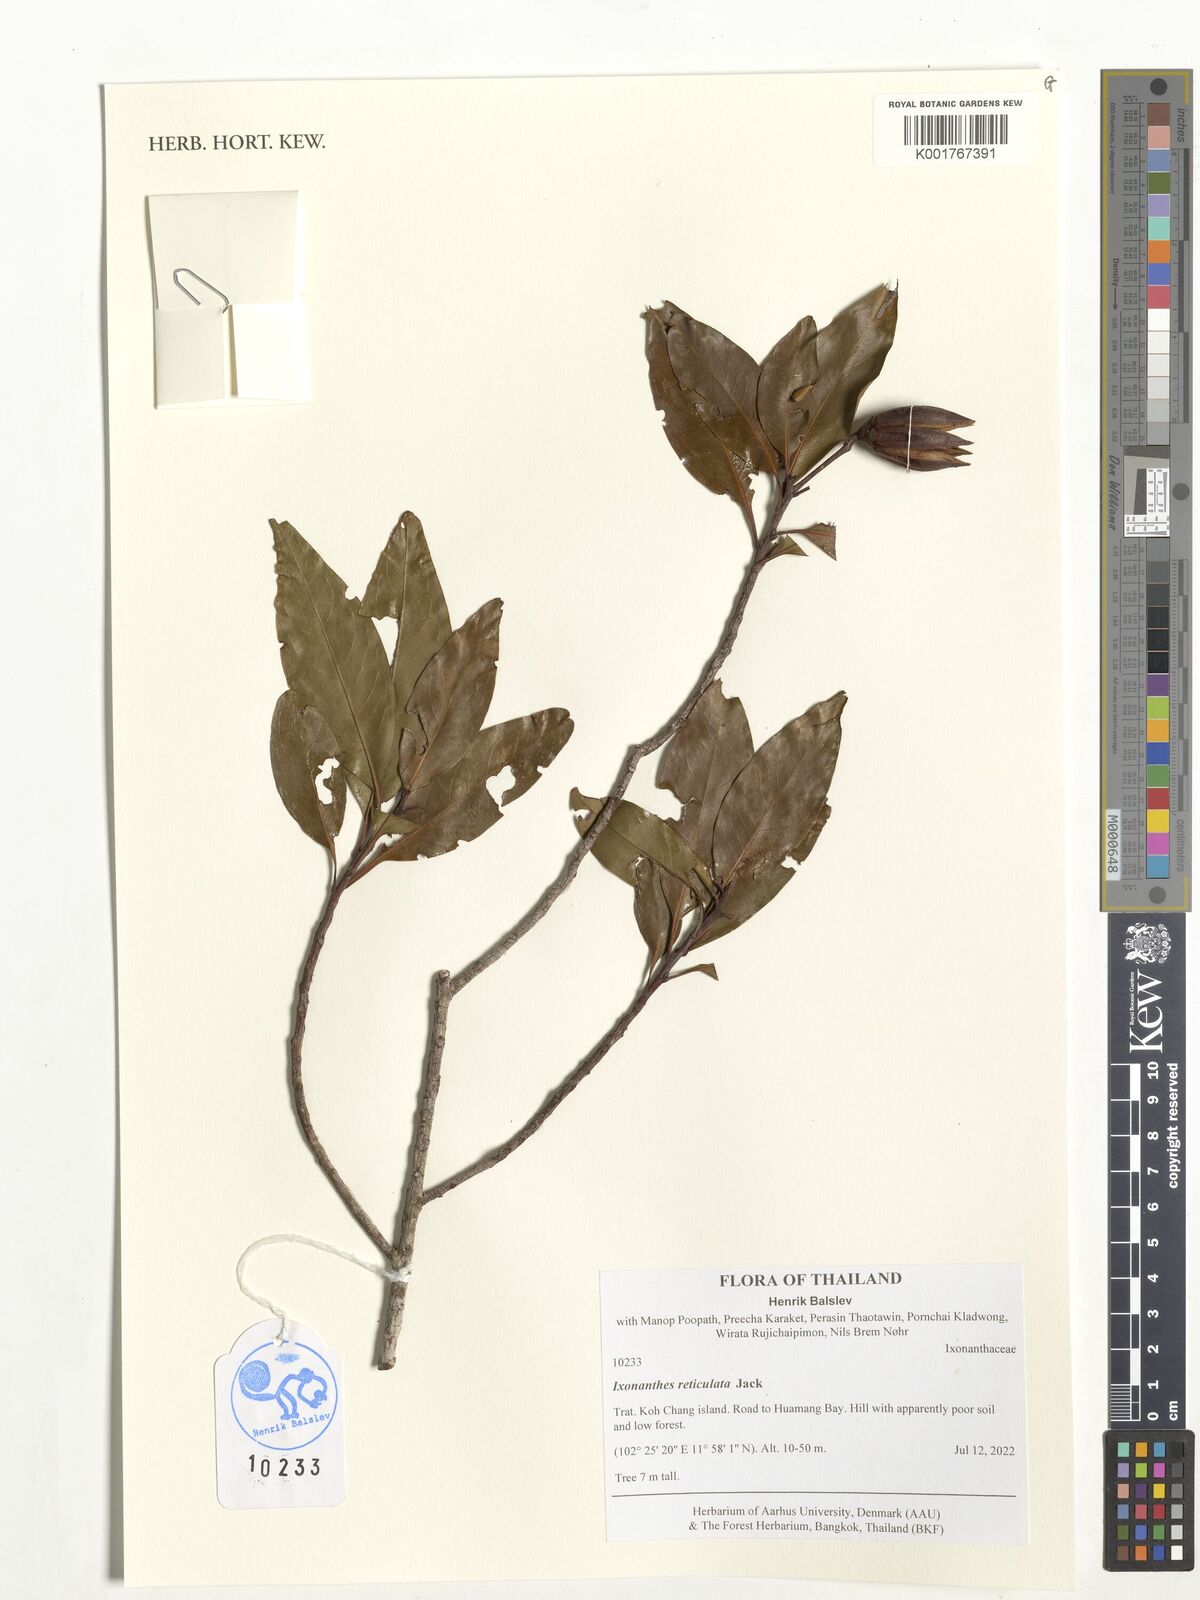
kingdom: Plantae
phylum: Tracheophyta
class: Magnoliopsida
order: Malpighiales
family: Ixonanthaceae
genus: Ixonanthes
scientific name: Ixonanthes reticulata
